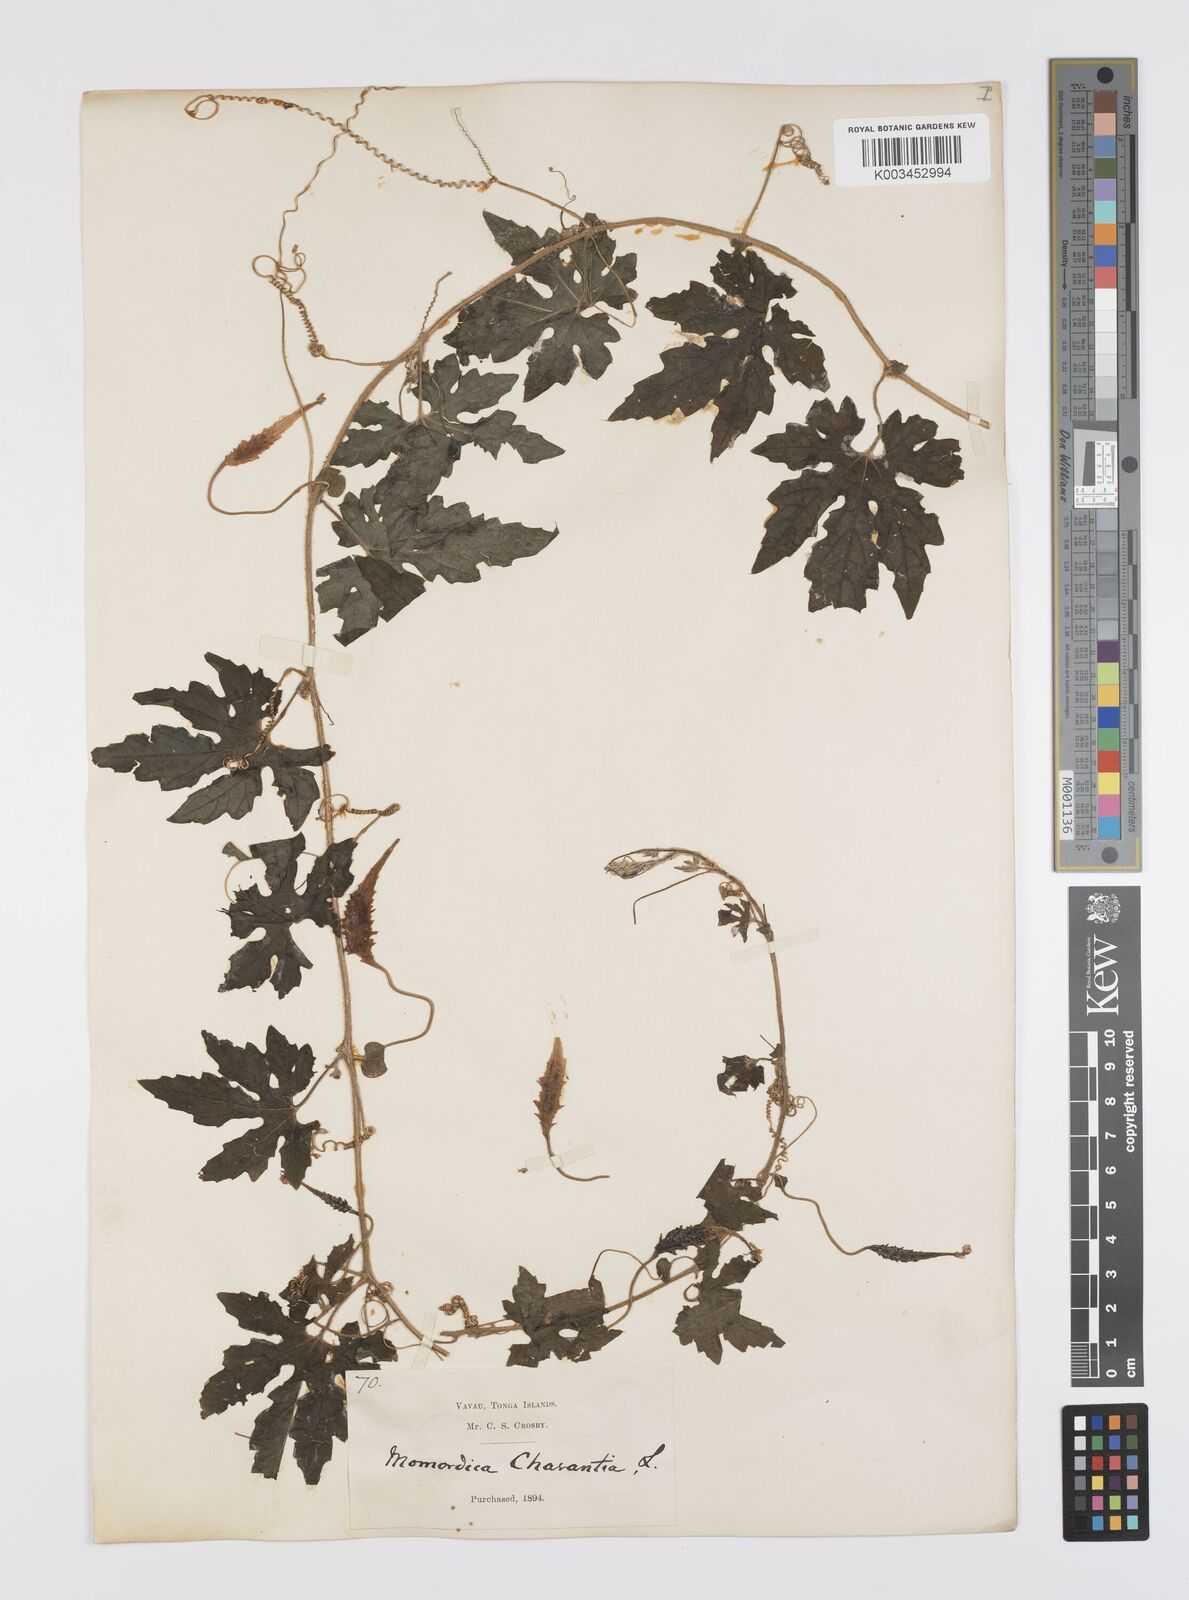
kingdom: Plantae
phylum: Tracheophyta
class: Magnoliopsida
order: Cucurbitales
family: Cucurbitaceae
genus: Momordica
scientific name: Momordica charantia
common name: Balsampear
